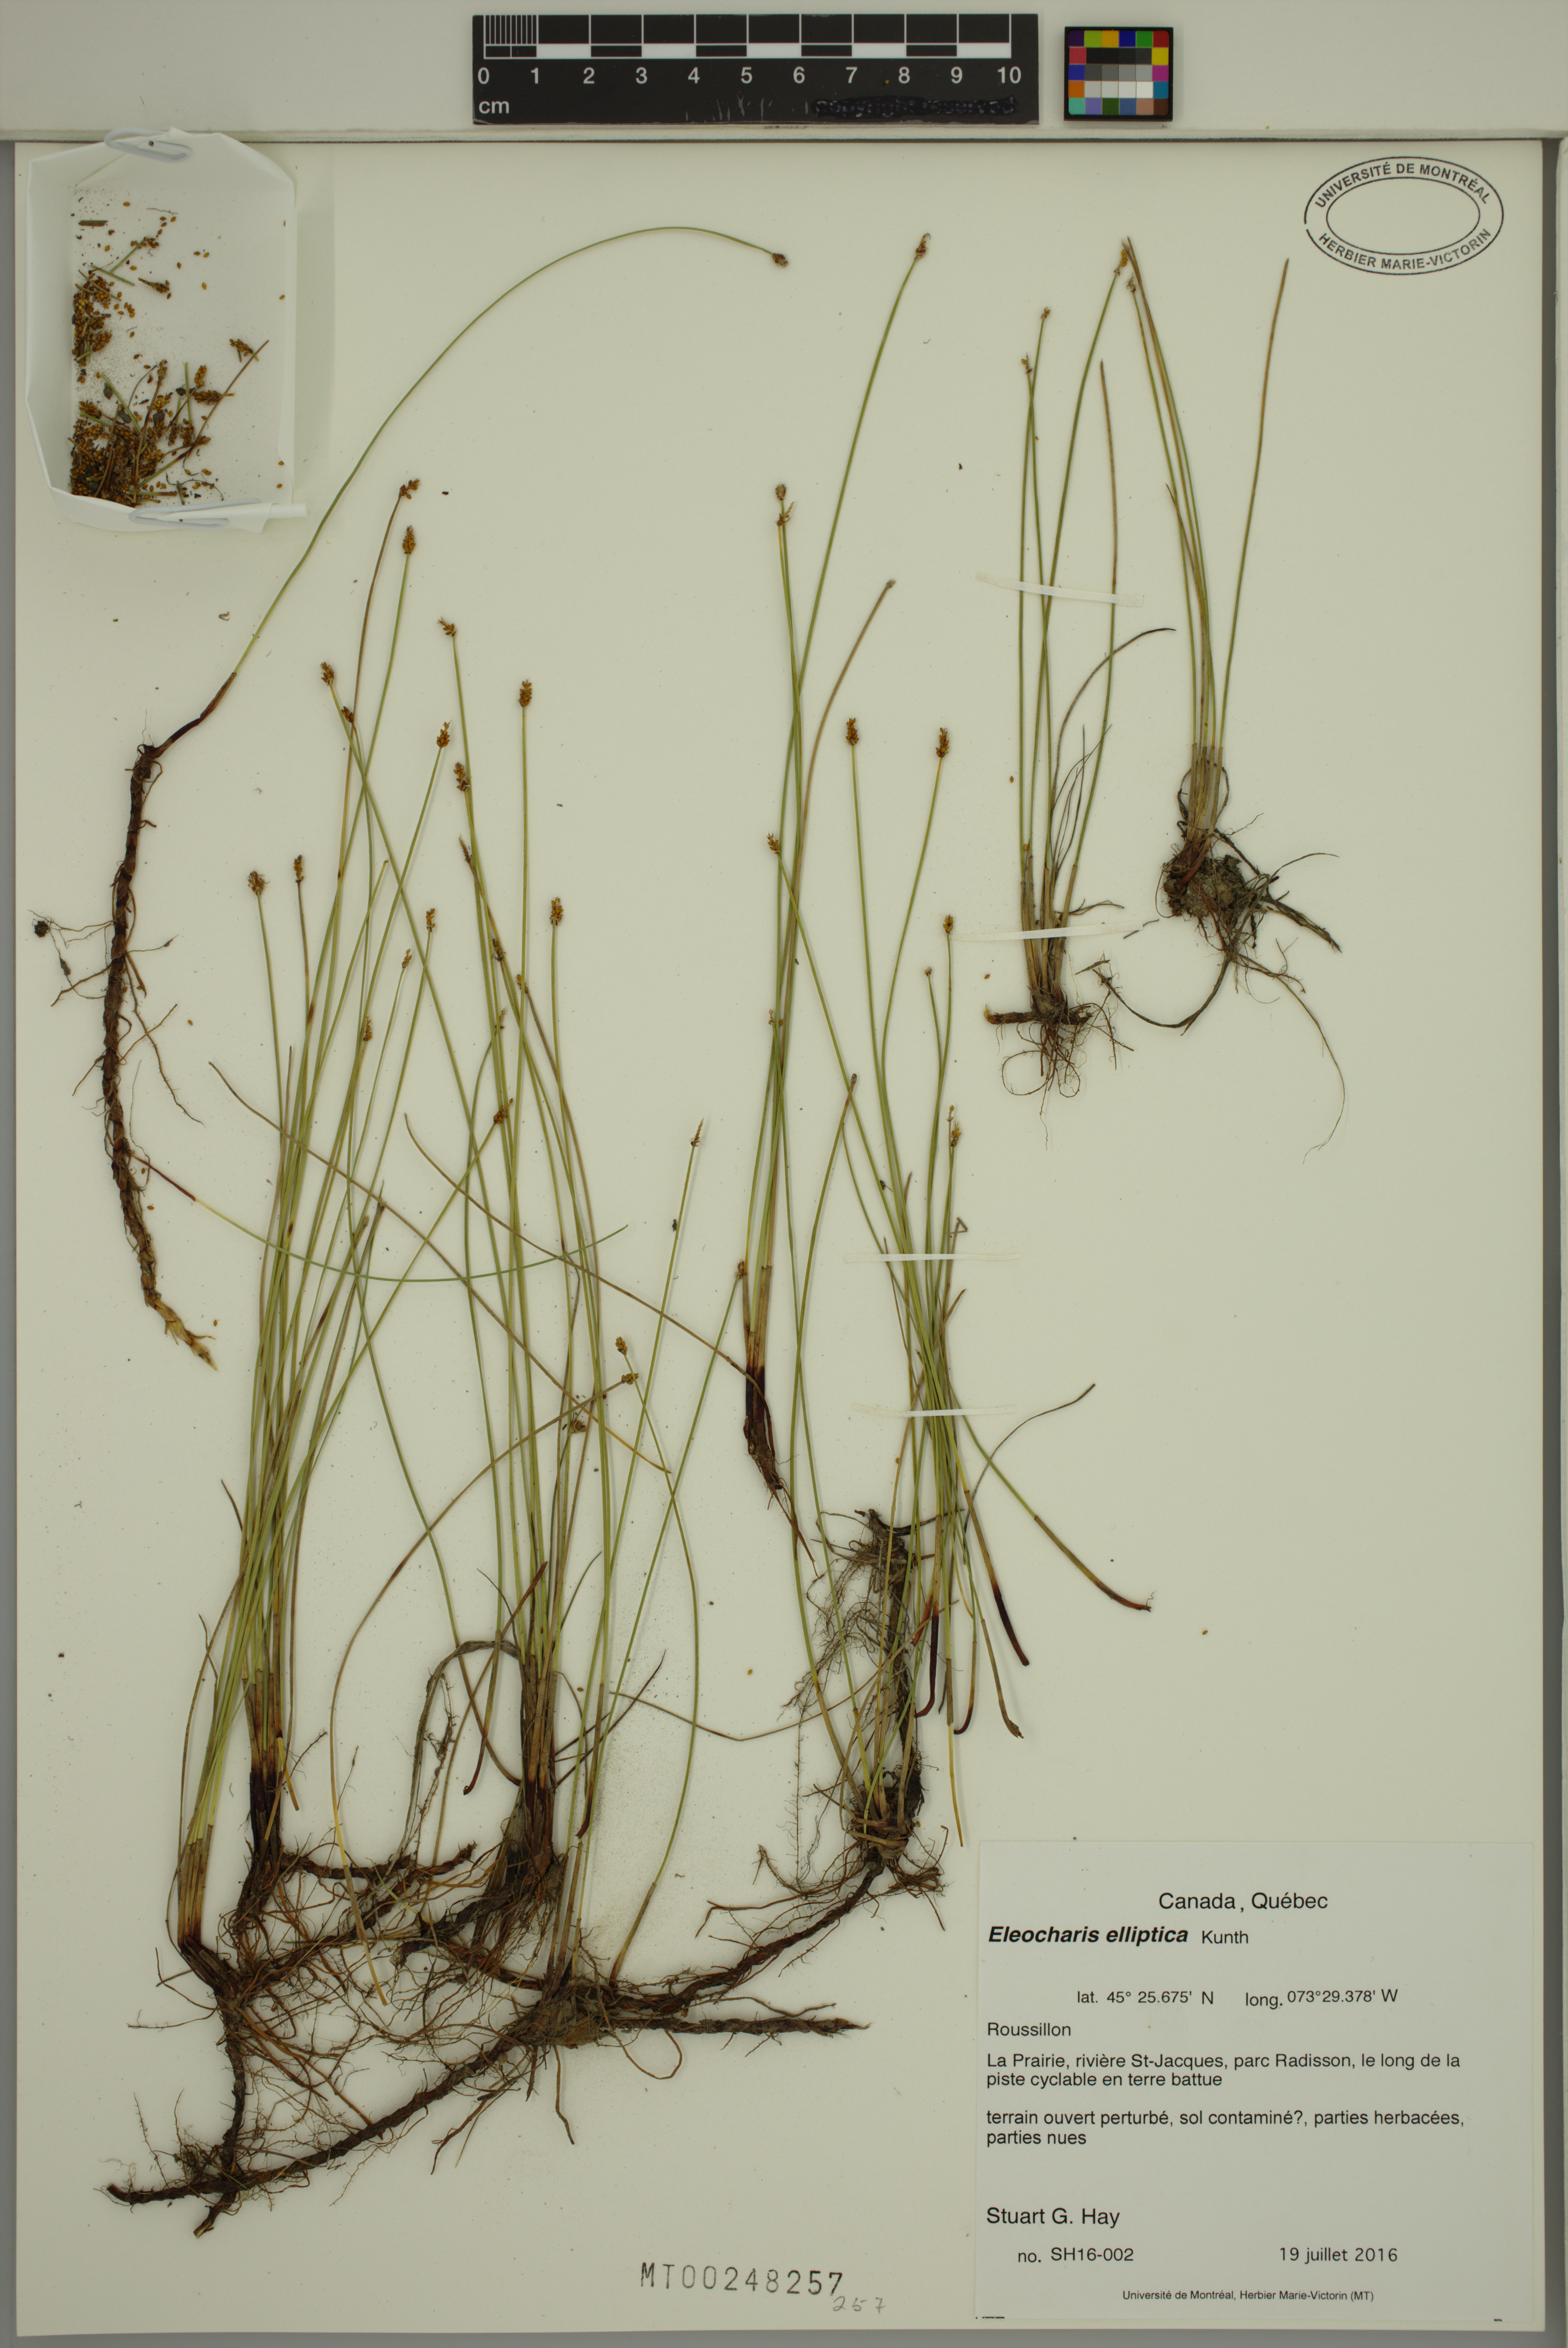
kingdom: Plantae
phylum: Tracheophyta
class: Liliopsida
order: Poales
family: Cyperaceae
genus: Eleocharis
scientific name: Eleocharis elliptica
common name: Capitate spikerush
